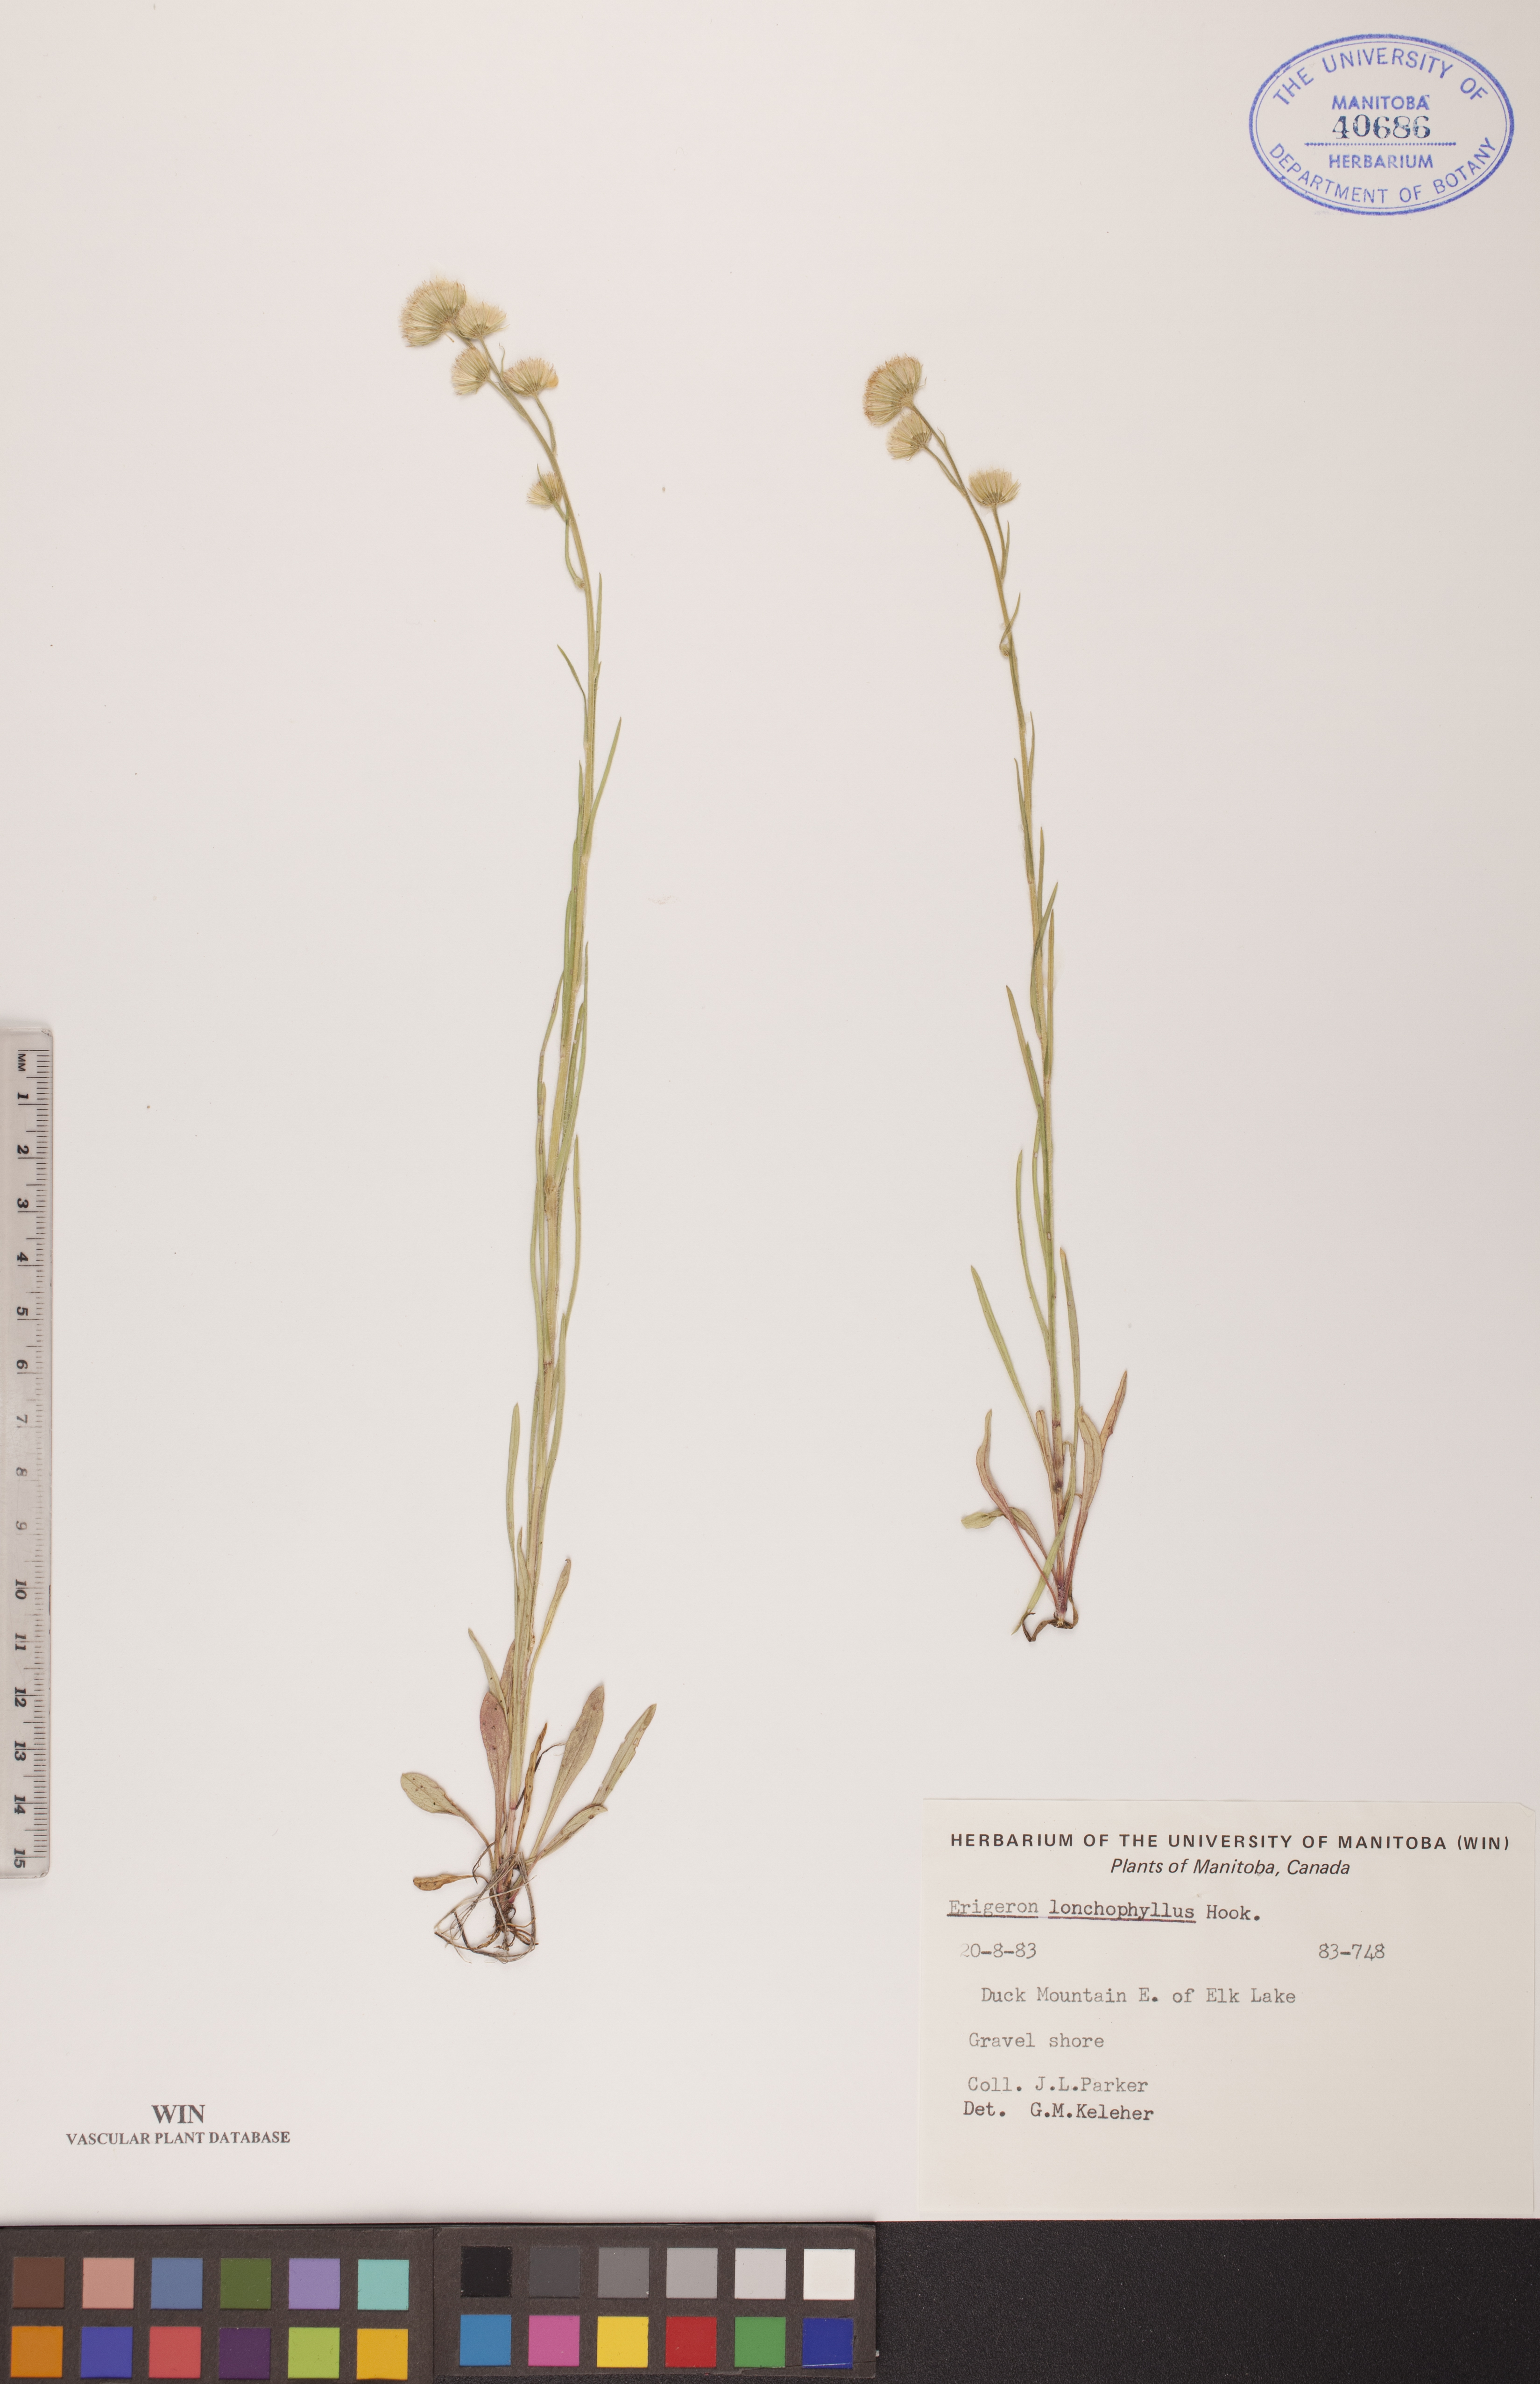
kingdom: Plantae
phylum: Tracheophyta
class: Magnoliopsida
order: Asterales
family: Asteraceae
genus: Erigeron
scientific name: Erigeron lonchophyllus
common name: Short-ray fleabane
